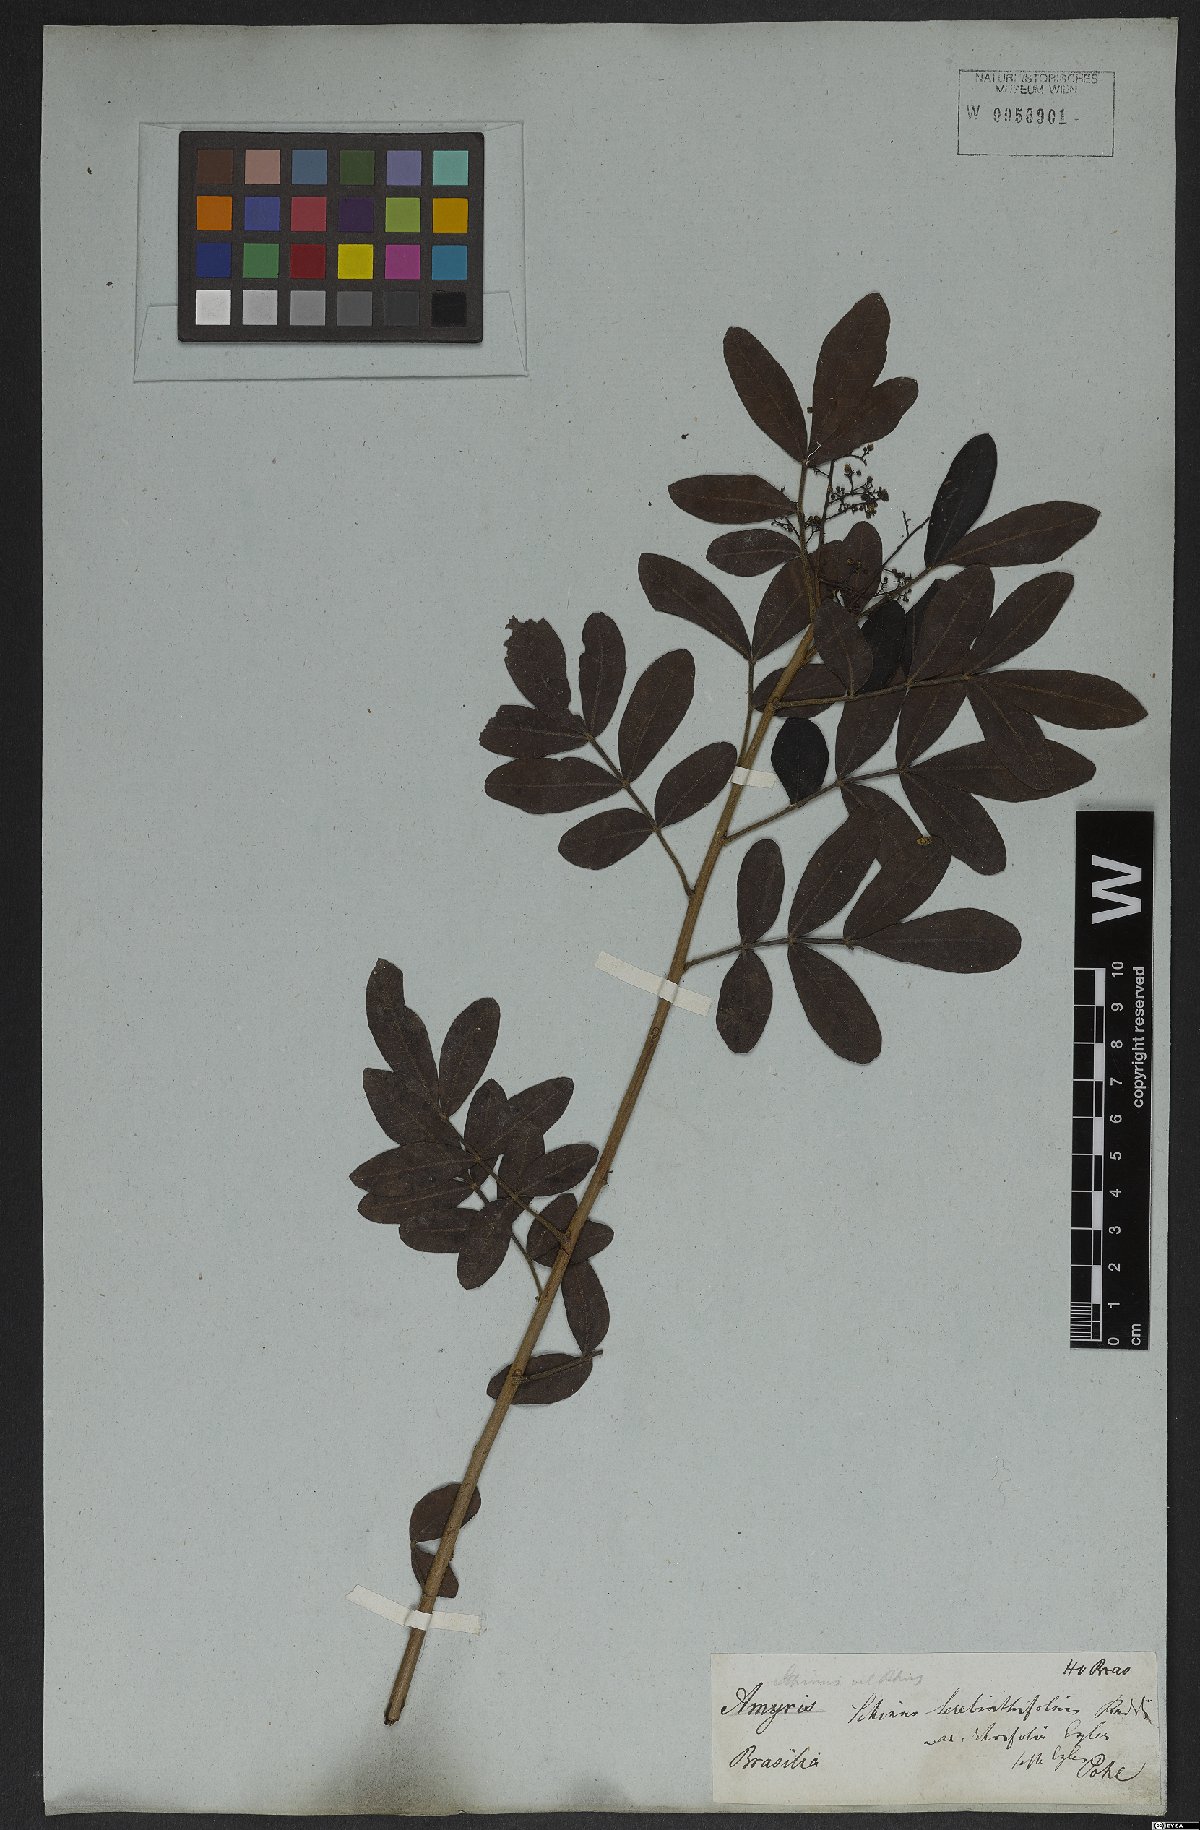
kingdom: Plantae
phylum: Tracheophyta
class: Magnoliopsida
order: Sapindales
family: Anacardiaceae
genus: Schinus
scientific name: Schinus terebinthifolia
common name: Brazilian peppertree
